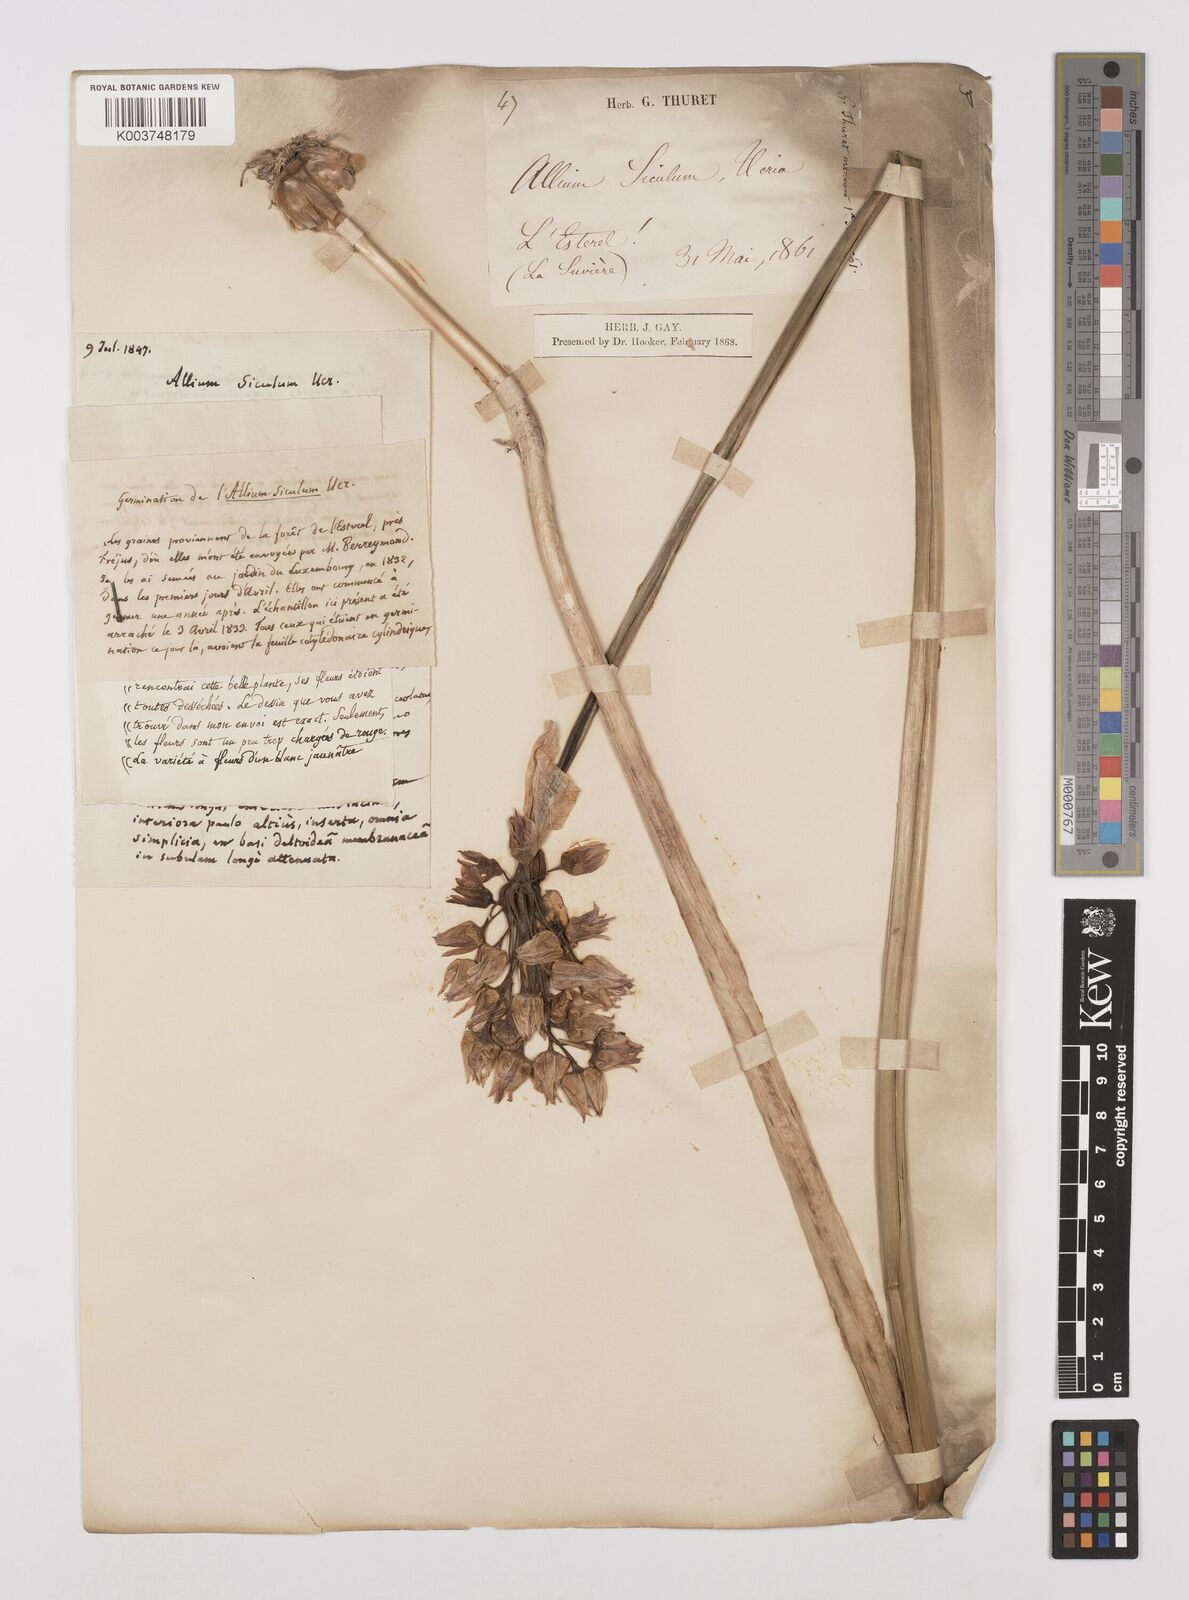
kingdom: Plantae
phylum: Tracheophyta
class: Liliopsida
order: Asparagales
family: Amaryllidaceae
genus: Allium
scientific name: Allium siculum
